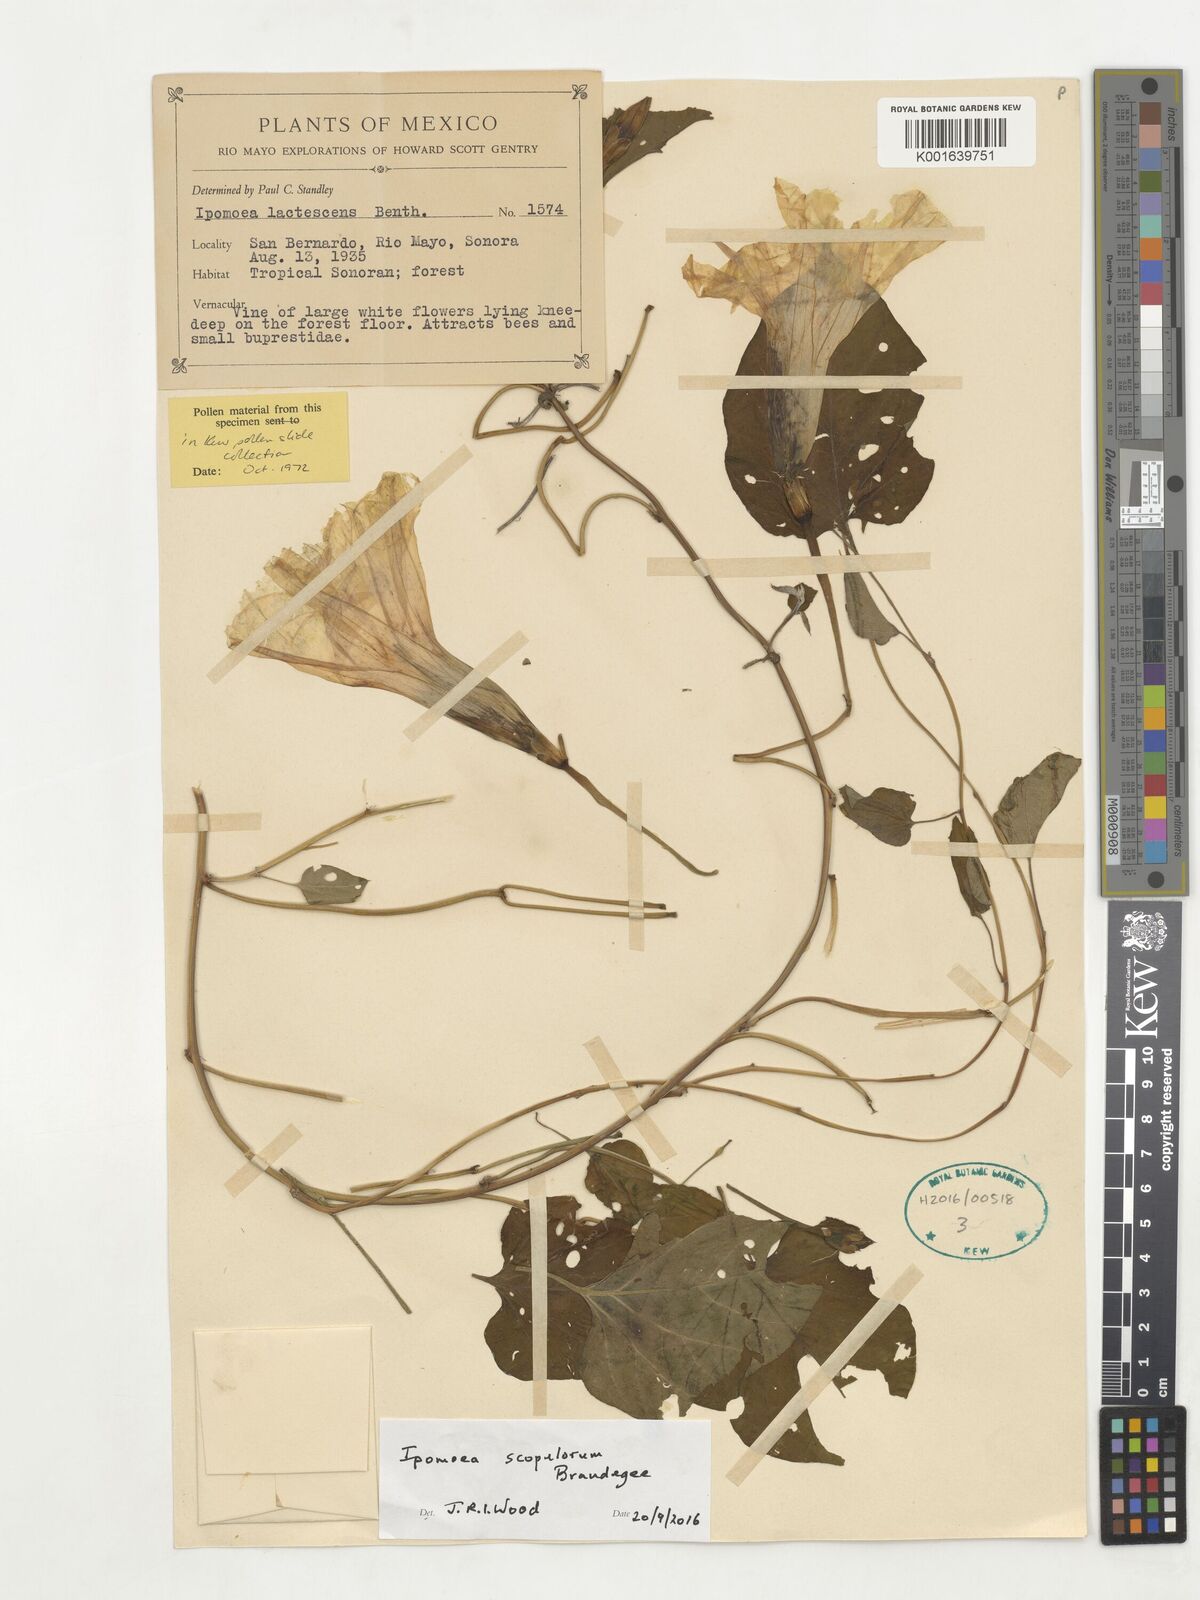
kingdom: Plantae
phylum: Tracheophyta
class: Magnoliopsida
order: Solanales
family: Convolvulaceae
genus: Ipomoea
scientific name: Ipomoea scopulorum
